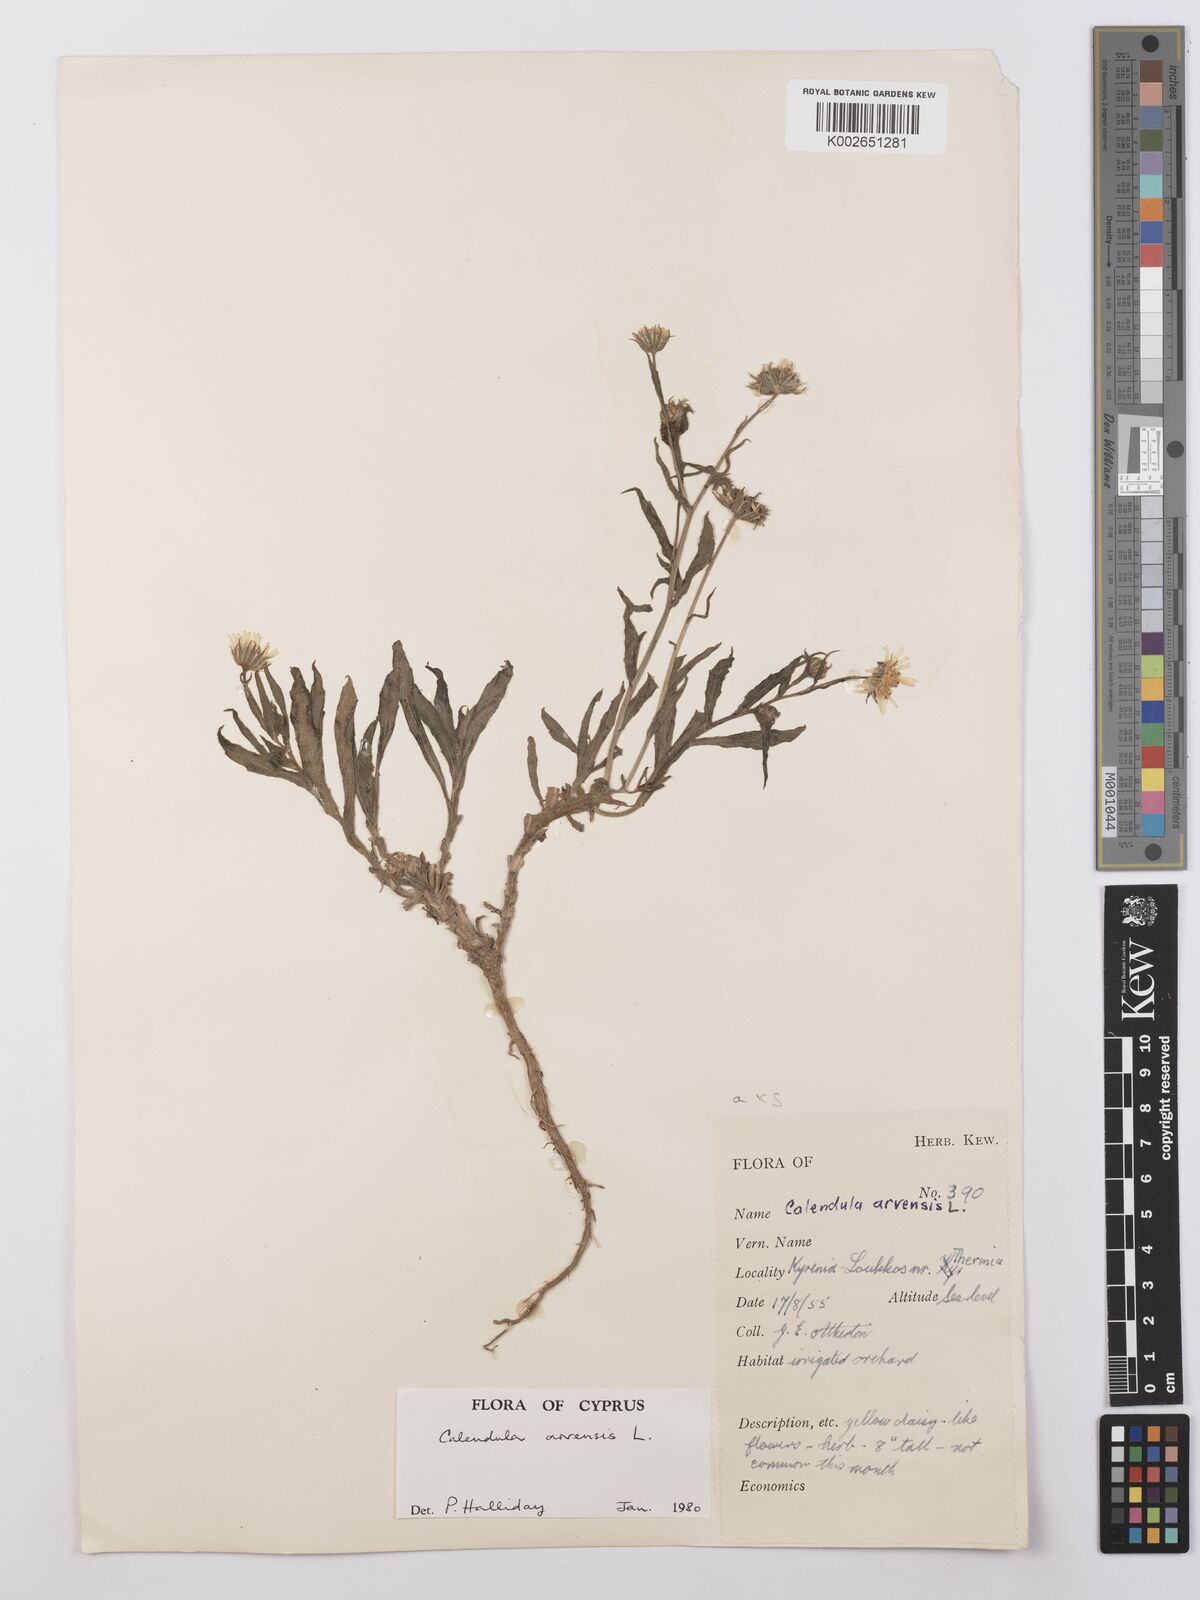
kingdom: Plantae
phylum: Tracheophyta
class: Magnoliopsida
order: Asterales
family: Asteraceae
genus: Calendula
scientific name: Calendula arvensis
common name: Field marigold
